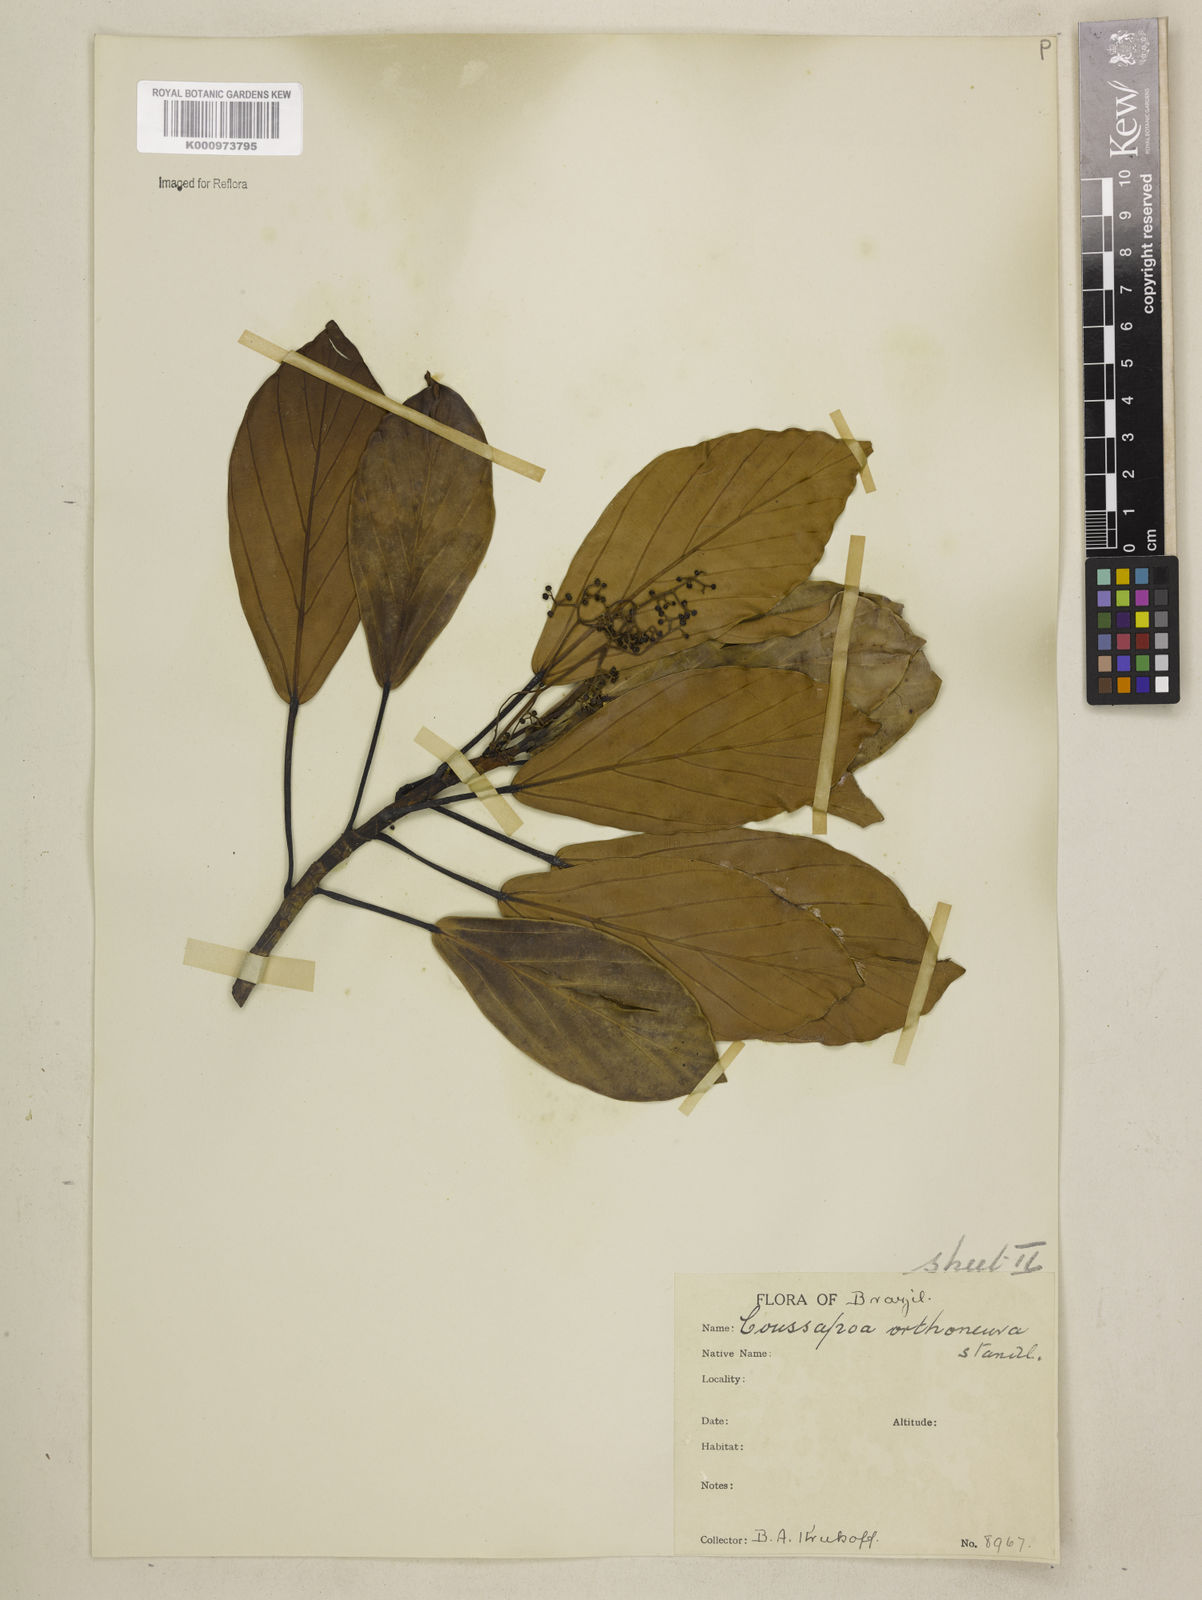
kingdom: Plantae
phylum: Tracheophyta
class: Magnoliopsida
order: Rosales
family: Urticaceae
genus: Coussapoa
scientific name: Coussapoa orthoneura
